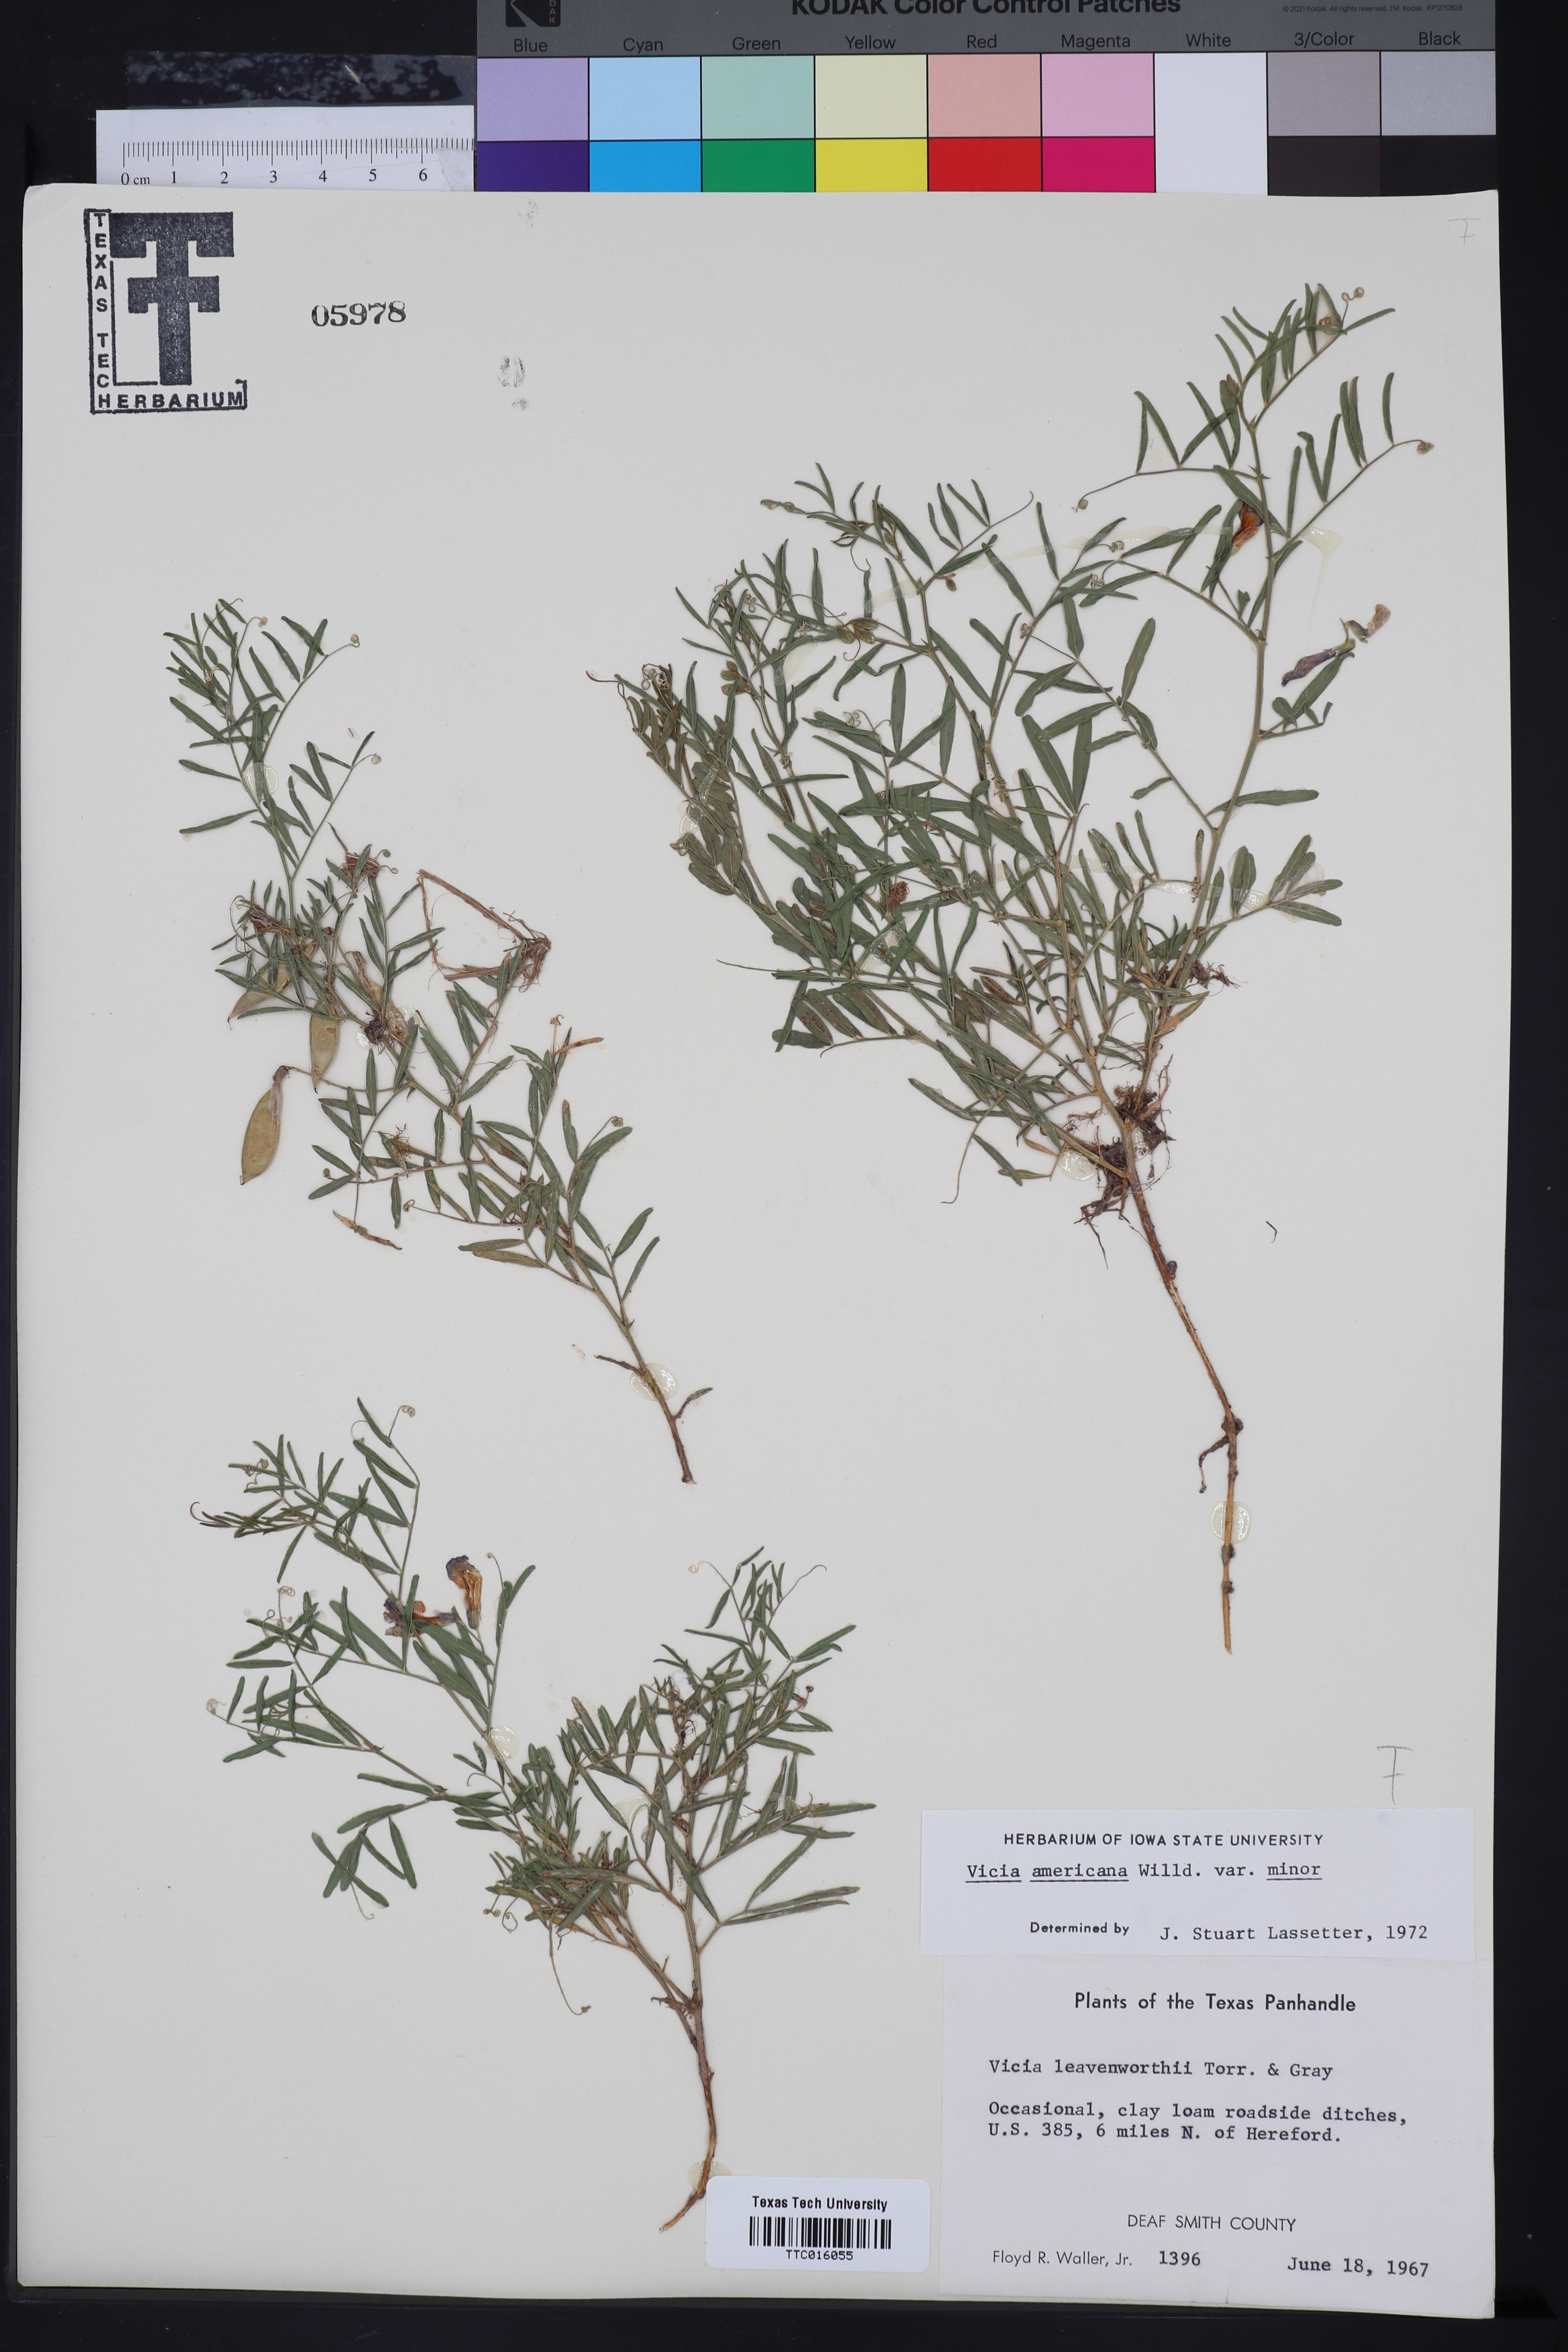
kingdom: Plantae
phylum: Tracheophyta
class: Magnoliopsida
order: Fabales
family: Fabaceae
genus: Vicia
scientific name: Vicia americana
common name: American vetch
